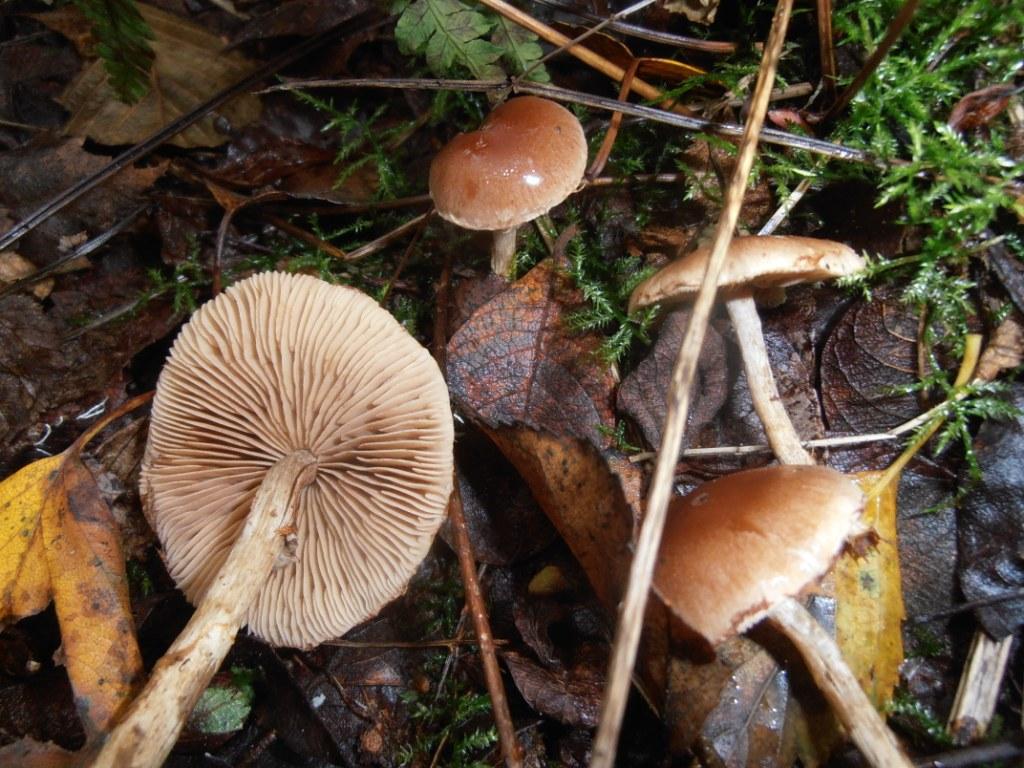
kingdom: Fungi
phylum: Basidiomycota
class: Agaricomycetes
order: Agaricales
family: Hymenogastraceae
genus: Hebeloma
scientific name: Hebeloma mesophaeum
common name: lerbrun tåreblad
